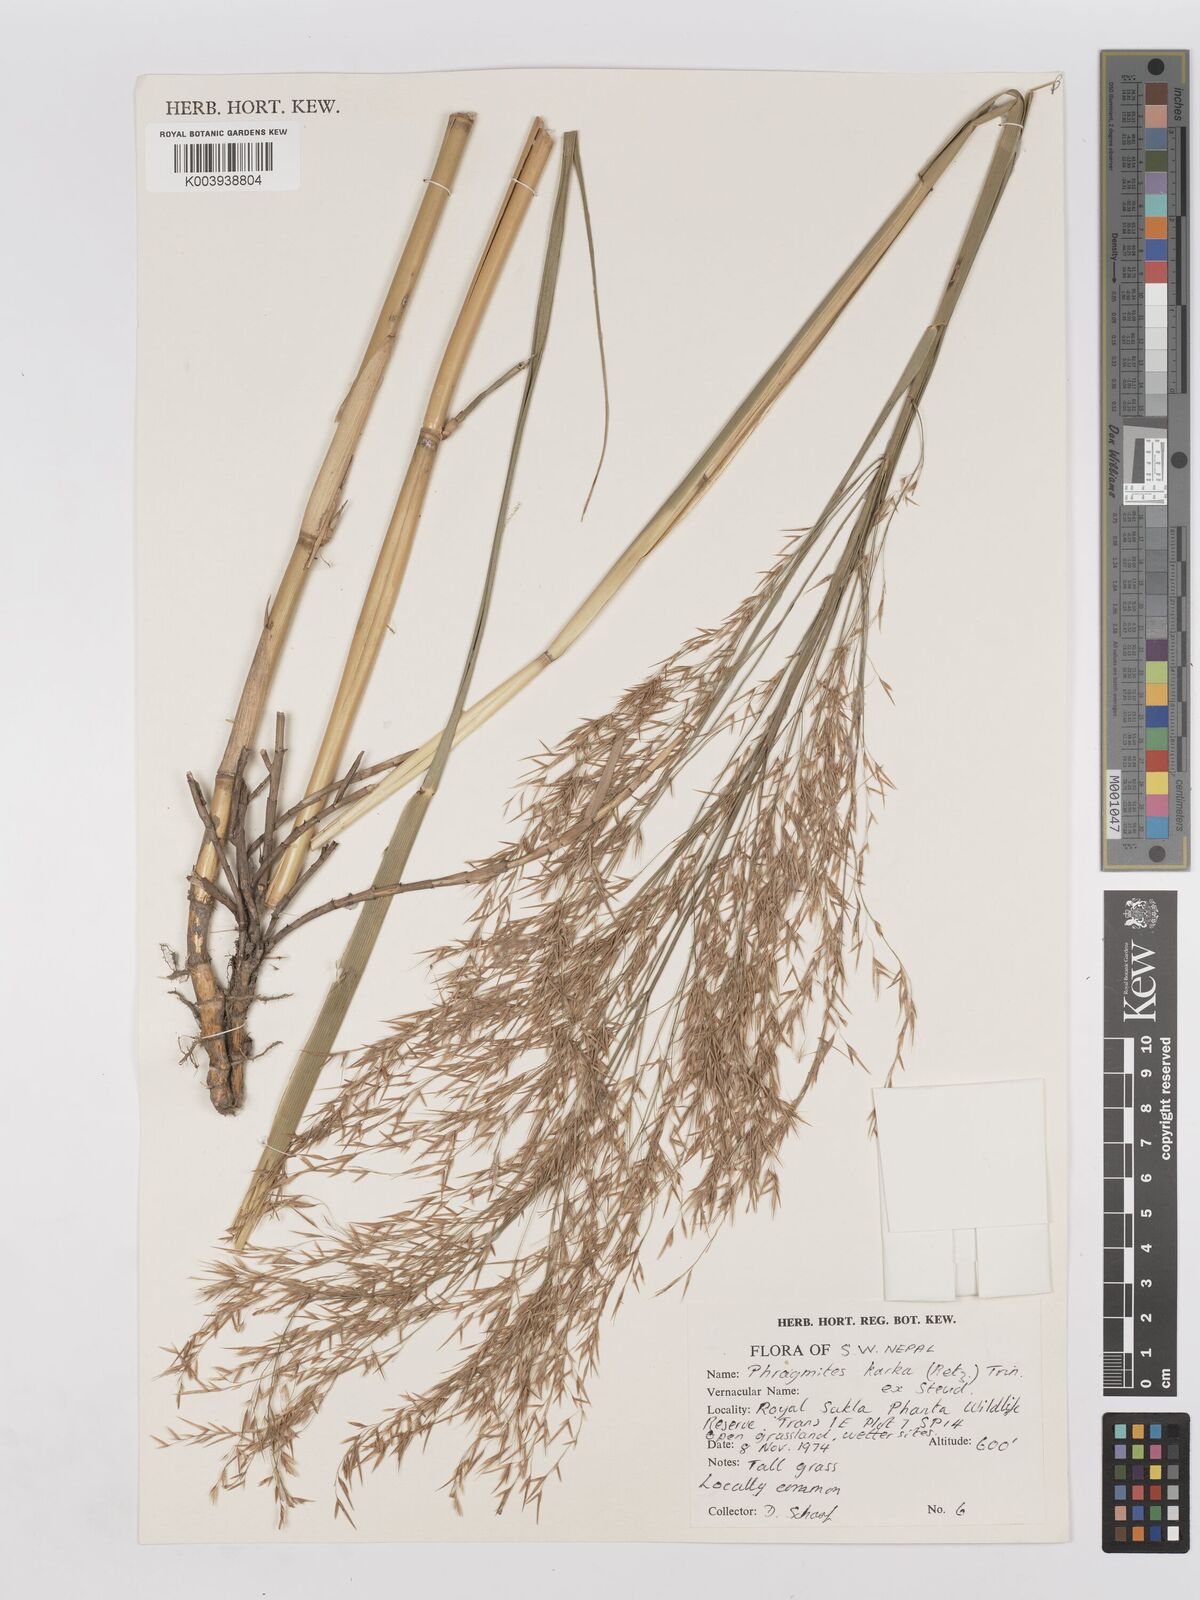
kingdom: Plantae
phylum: Tracheophyta
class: Liliopsida
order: Poales
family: Poaceae
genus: Phragmites
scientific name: Phragmites karka
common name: Tropical reed
